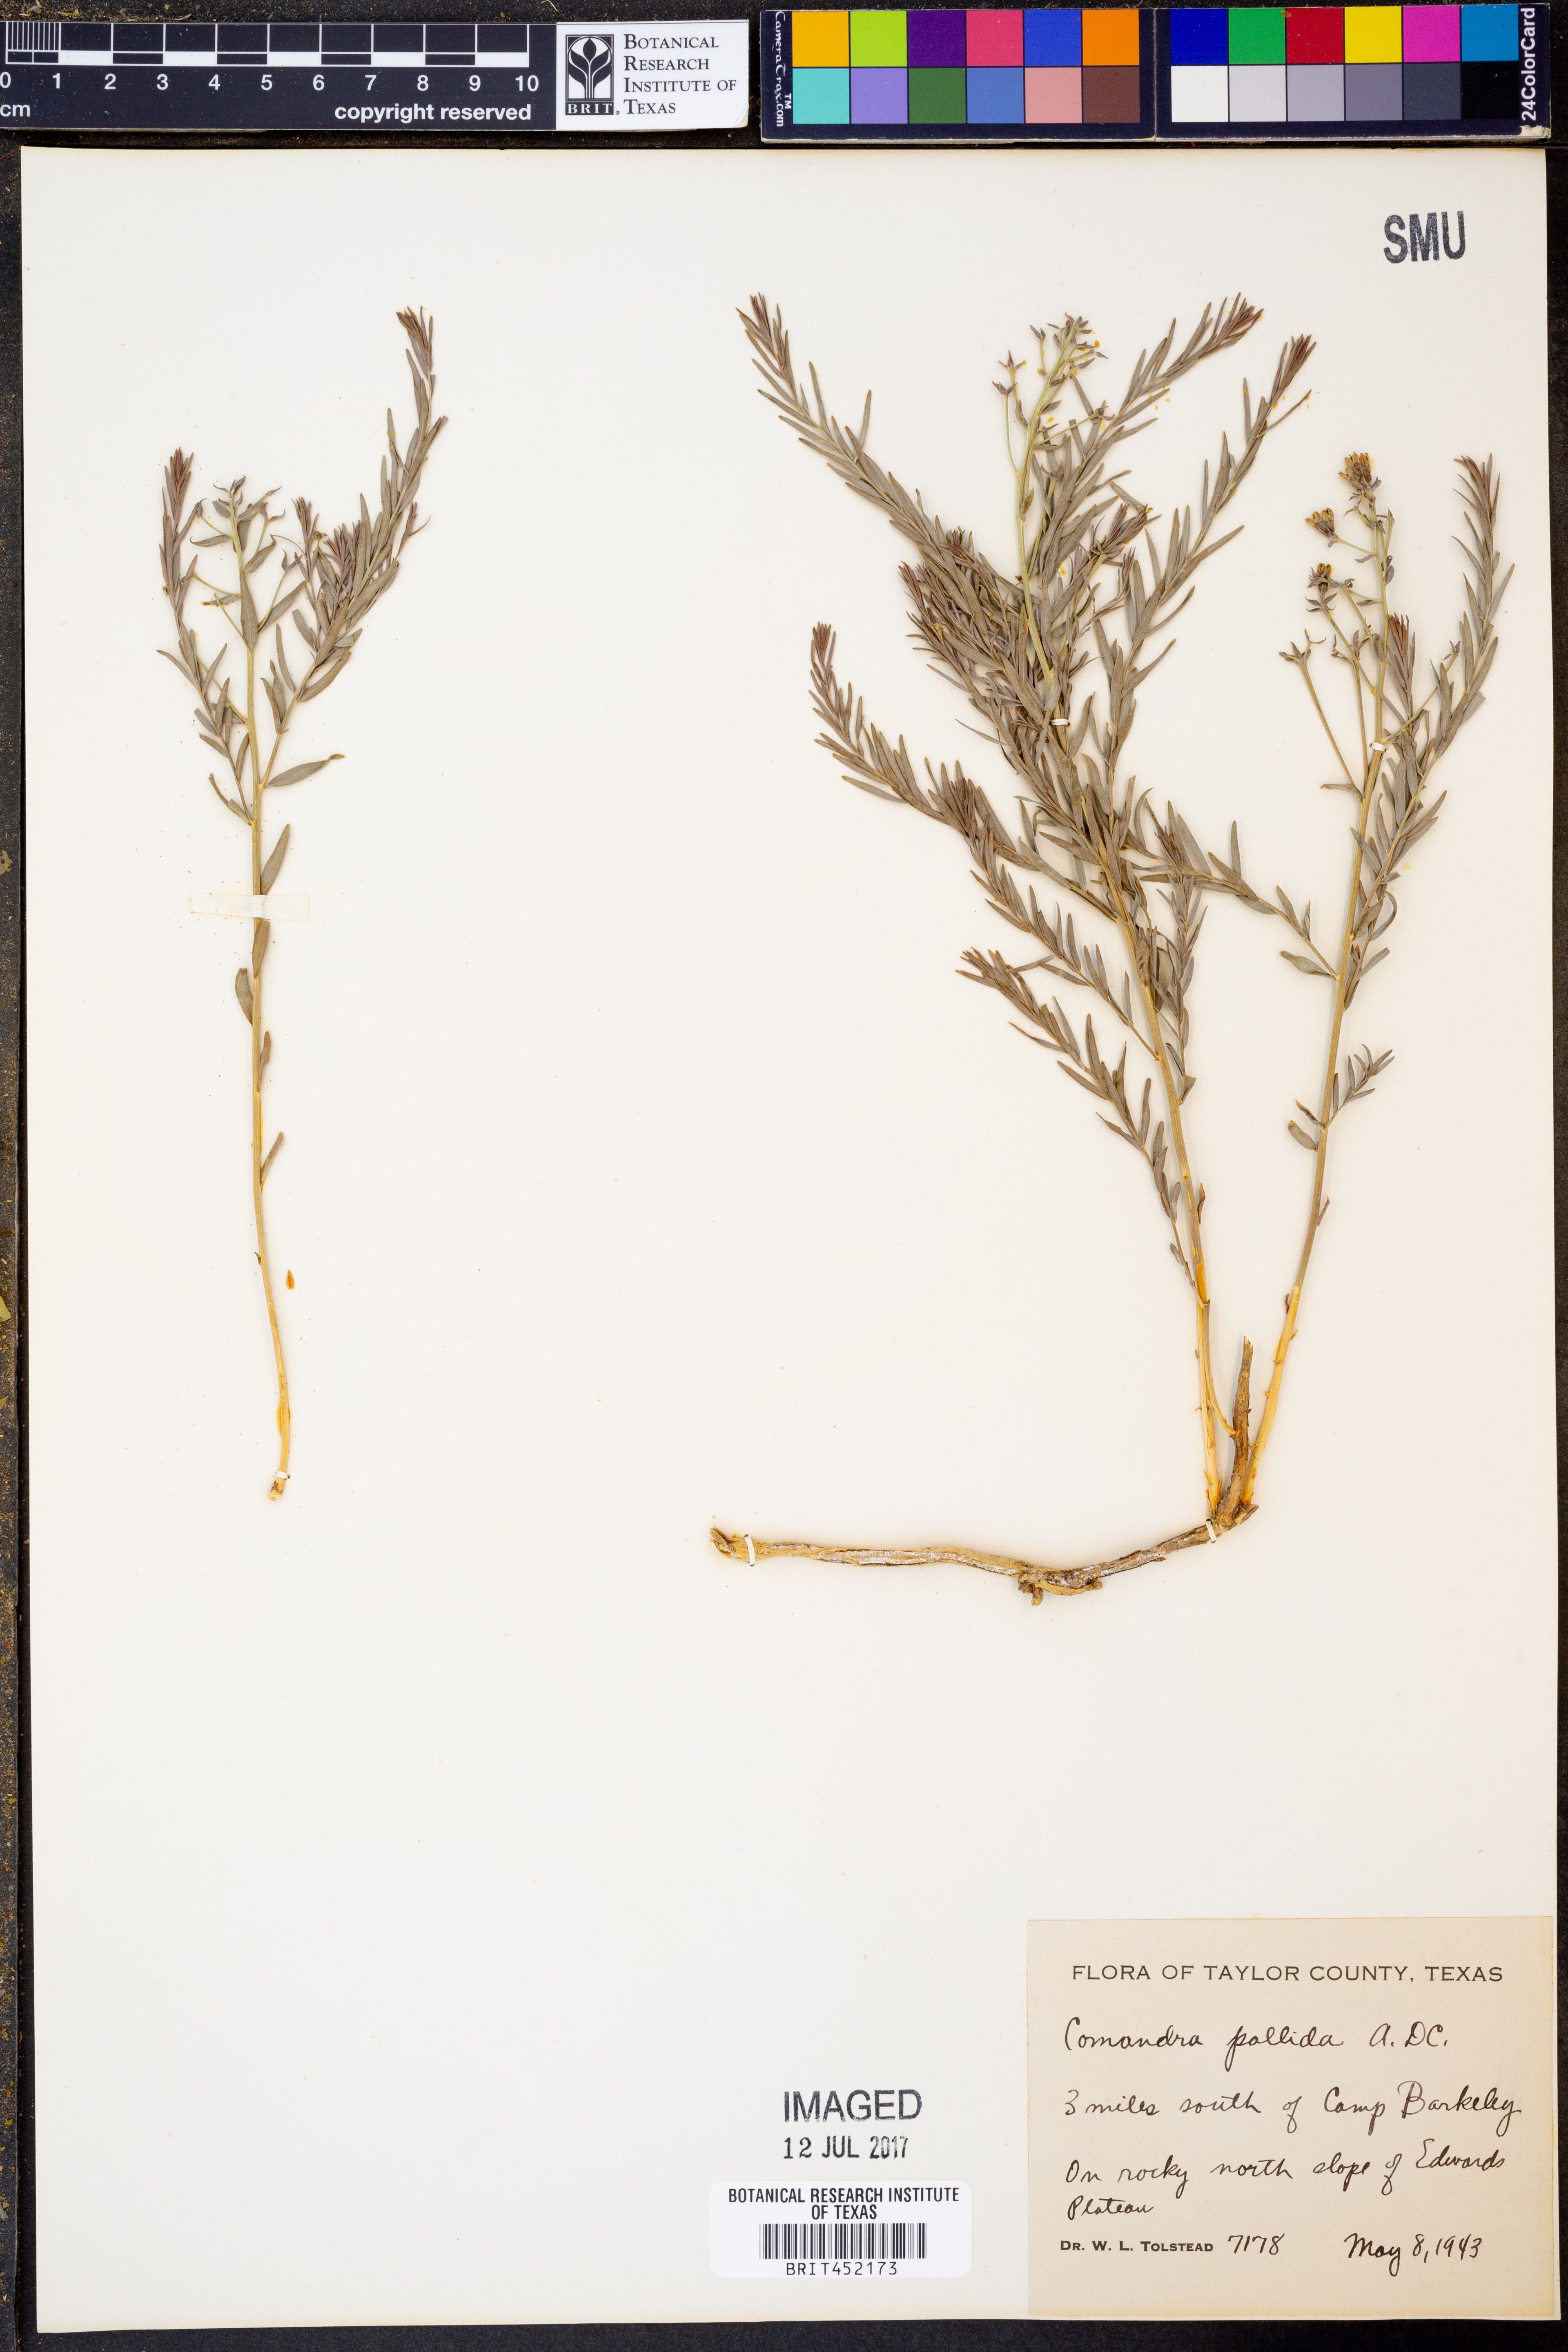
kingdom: Plantae
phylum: Tracheophyta
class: Magnoliopsida
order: Santalales
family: Comandraceae
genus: Comandra
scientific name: Comandra umbellata
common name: Bastard toadflax
